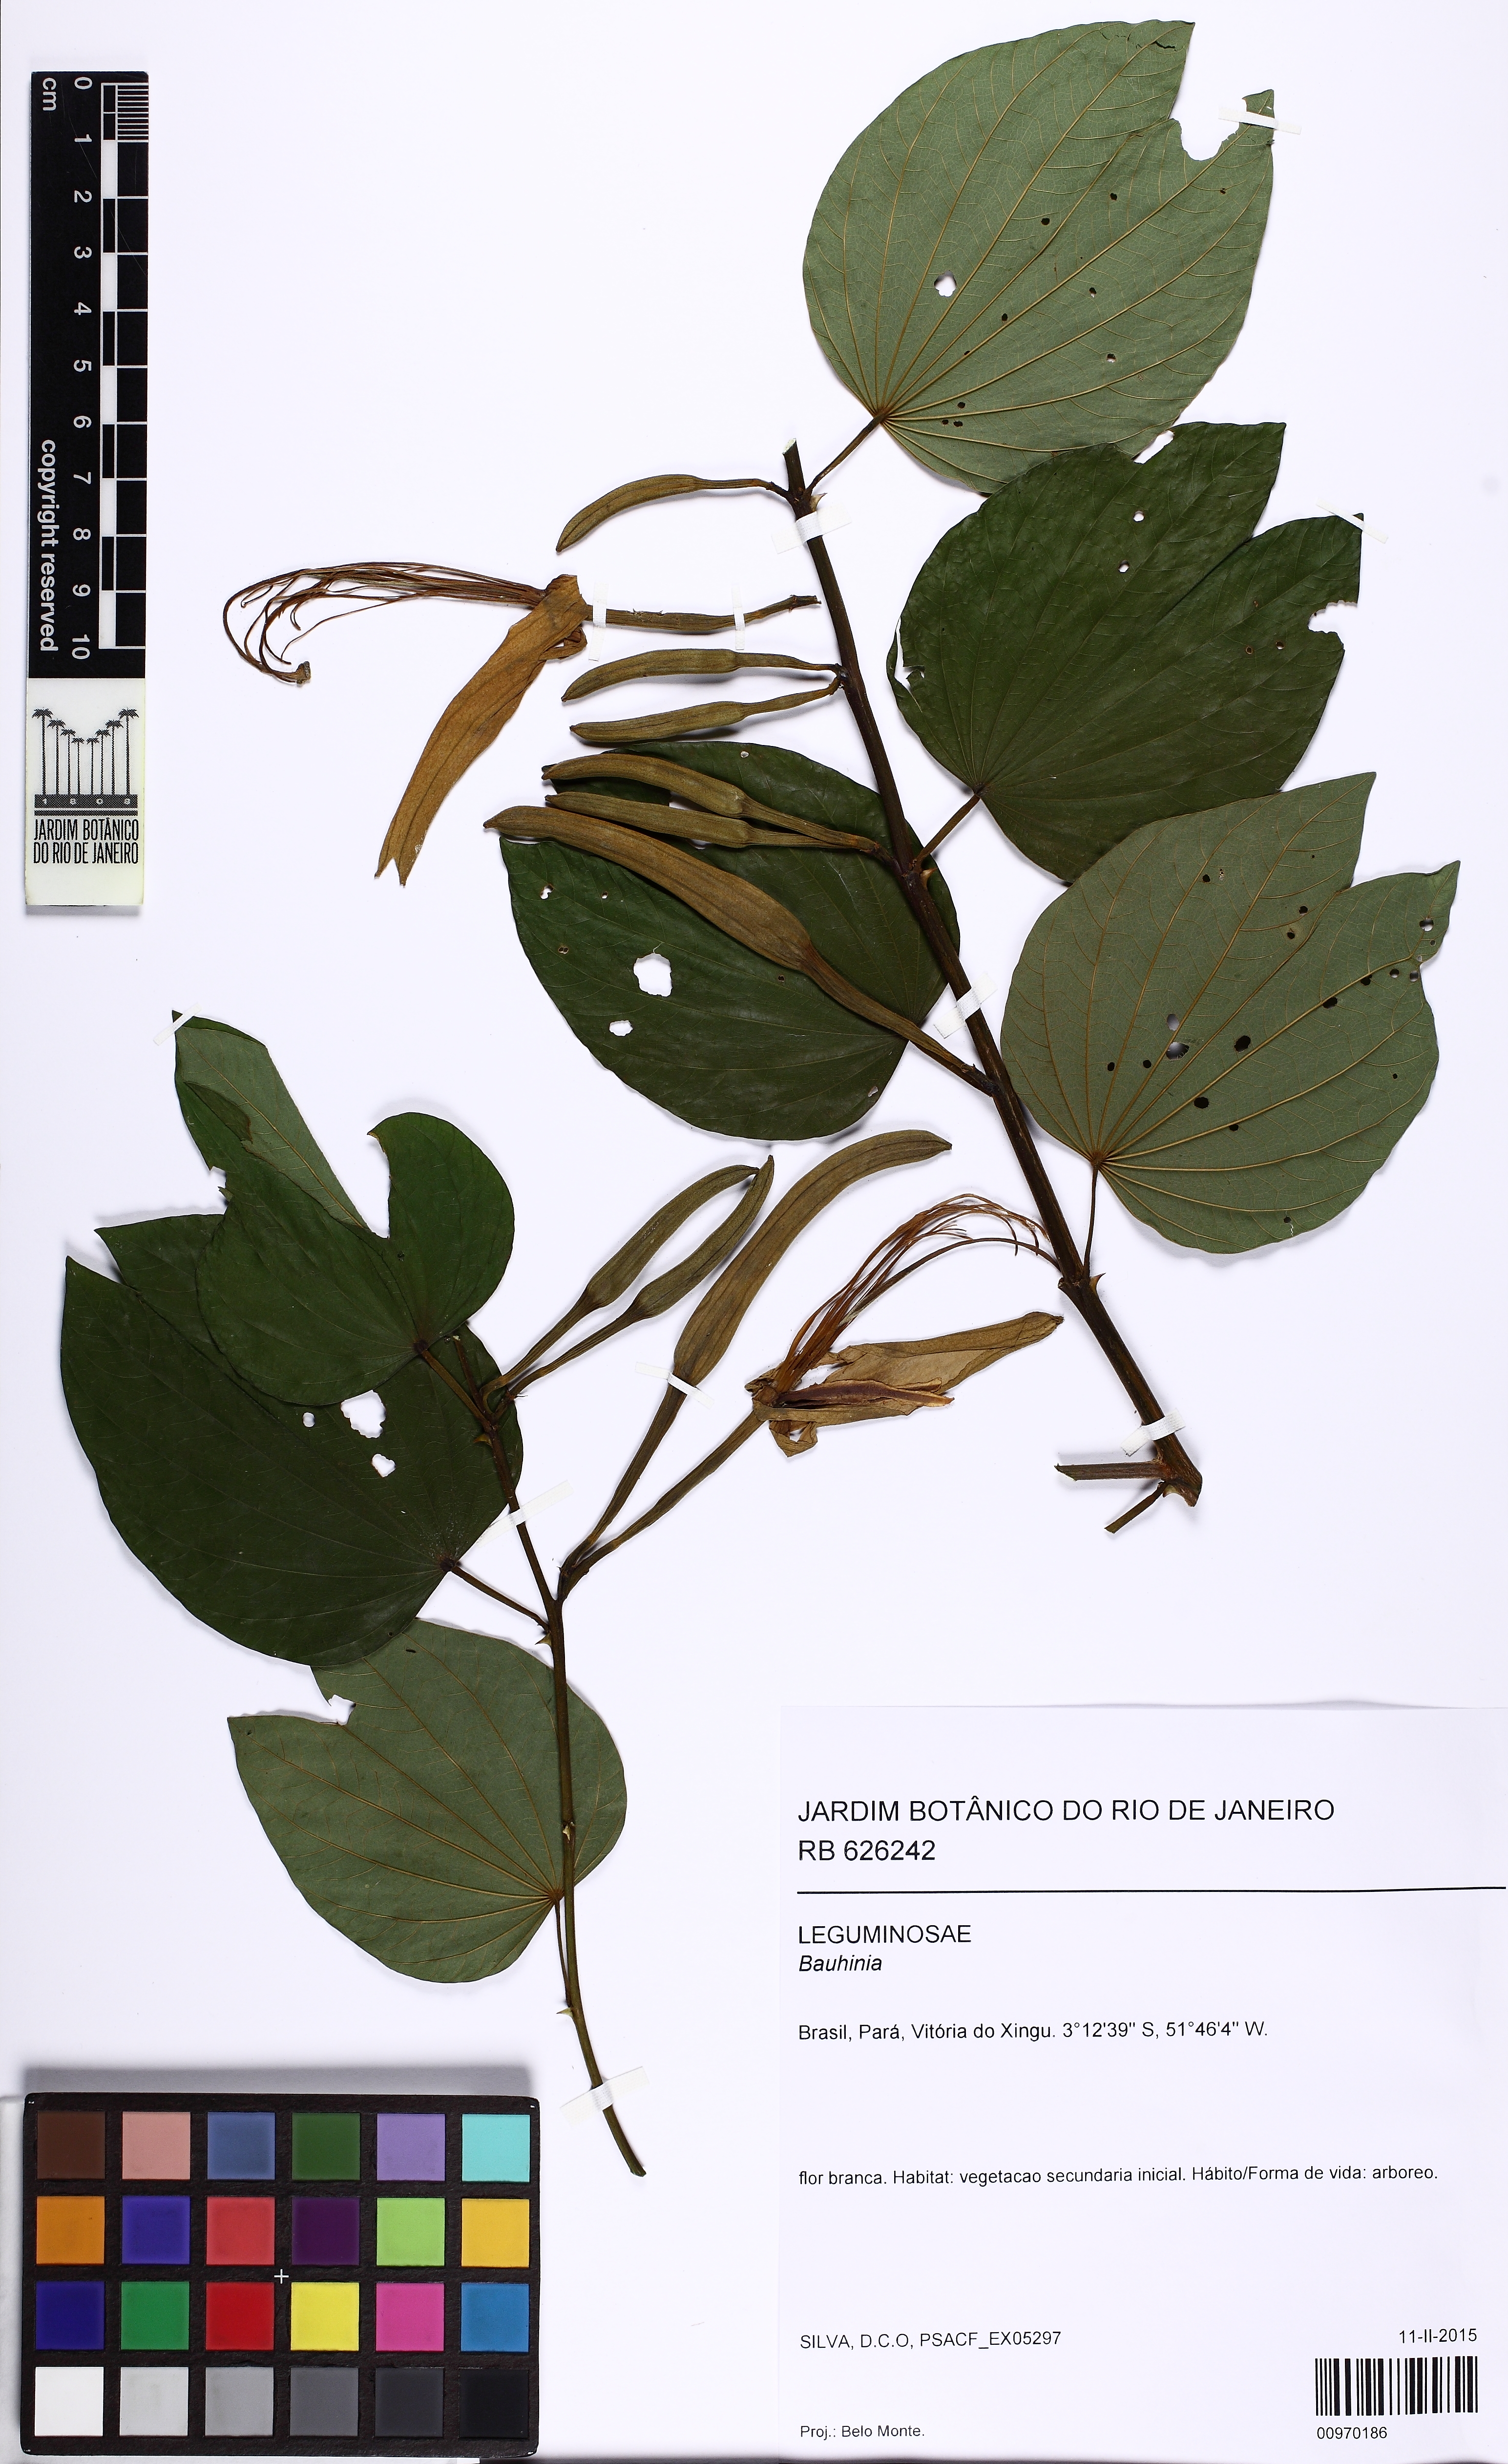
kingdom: Plantae
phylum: Tracheophyta
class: Magnoliopsida
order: Fabales
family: Fabaceae
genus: Bauhinia
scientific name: Bauhinia
